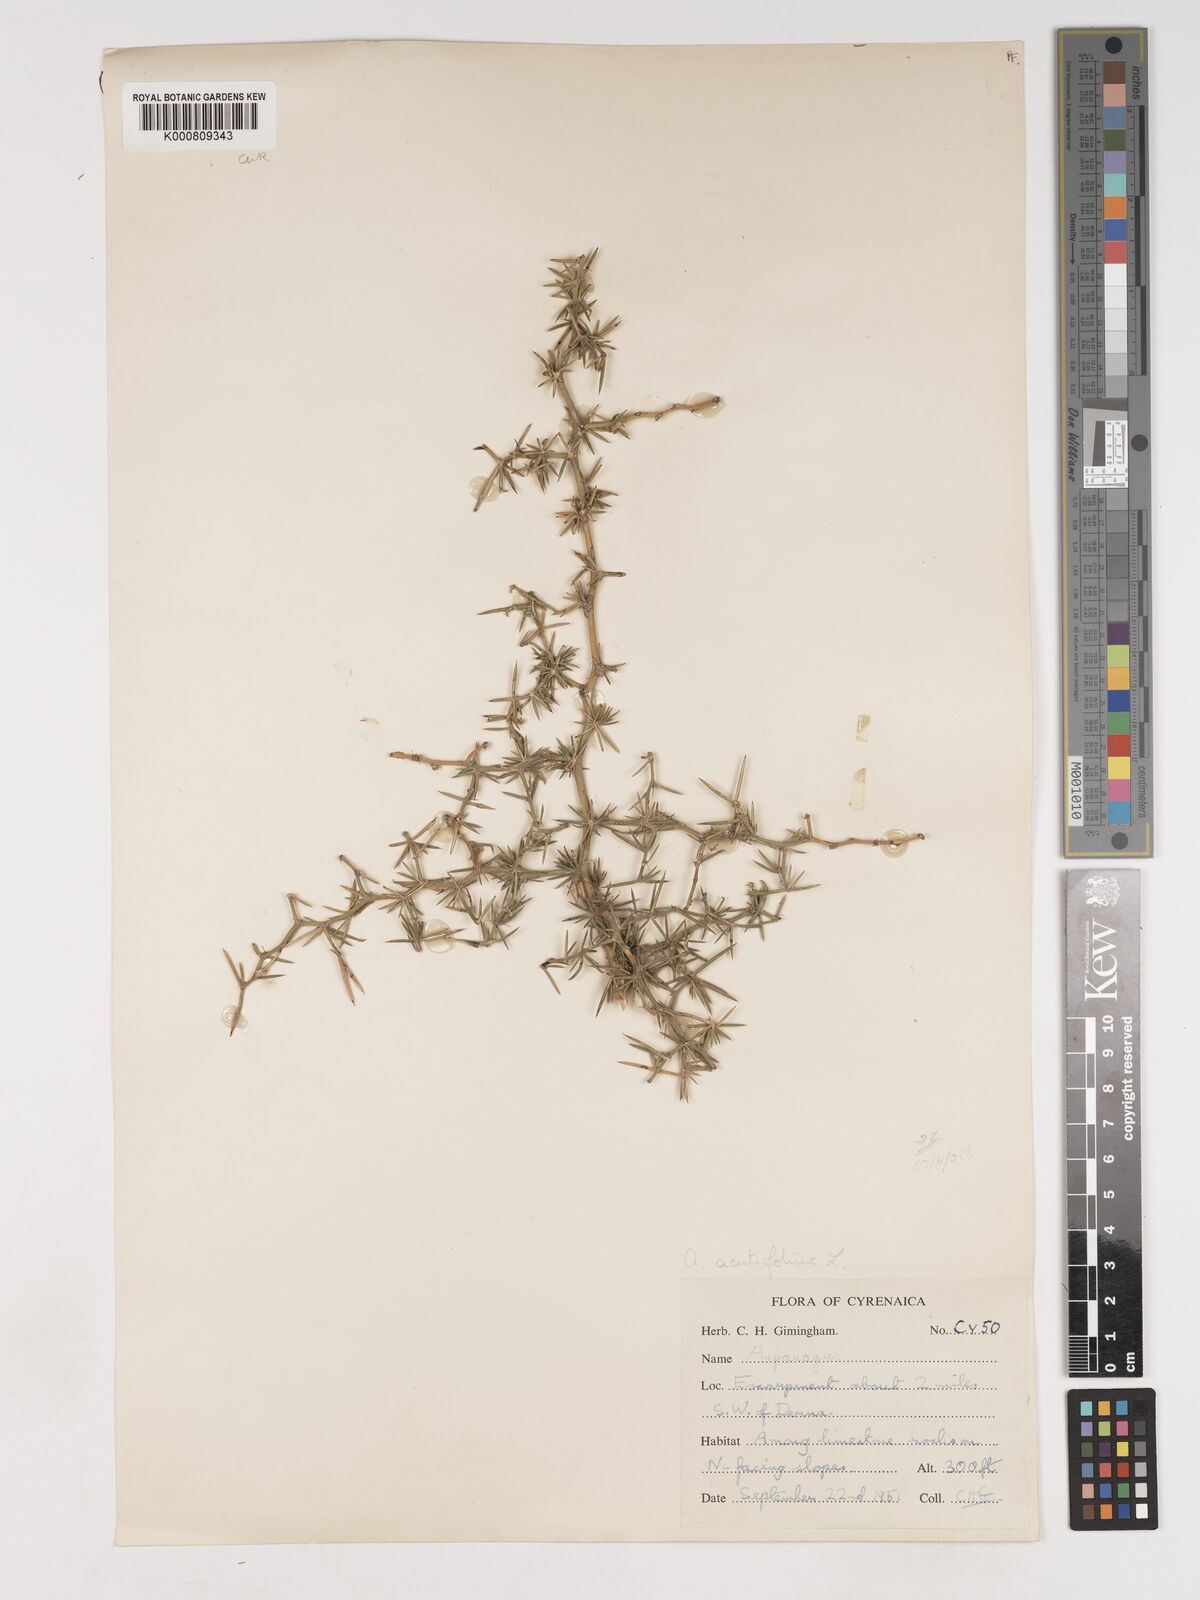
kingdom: Plantae
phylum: Tracheophyta
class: Liliopsida
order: Asparagales
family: Asparagaceae
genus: Asparagus
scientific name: Asparagus
